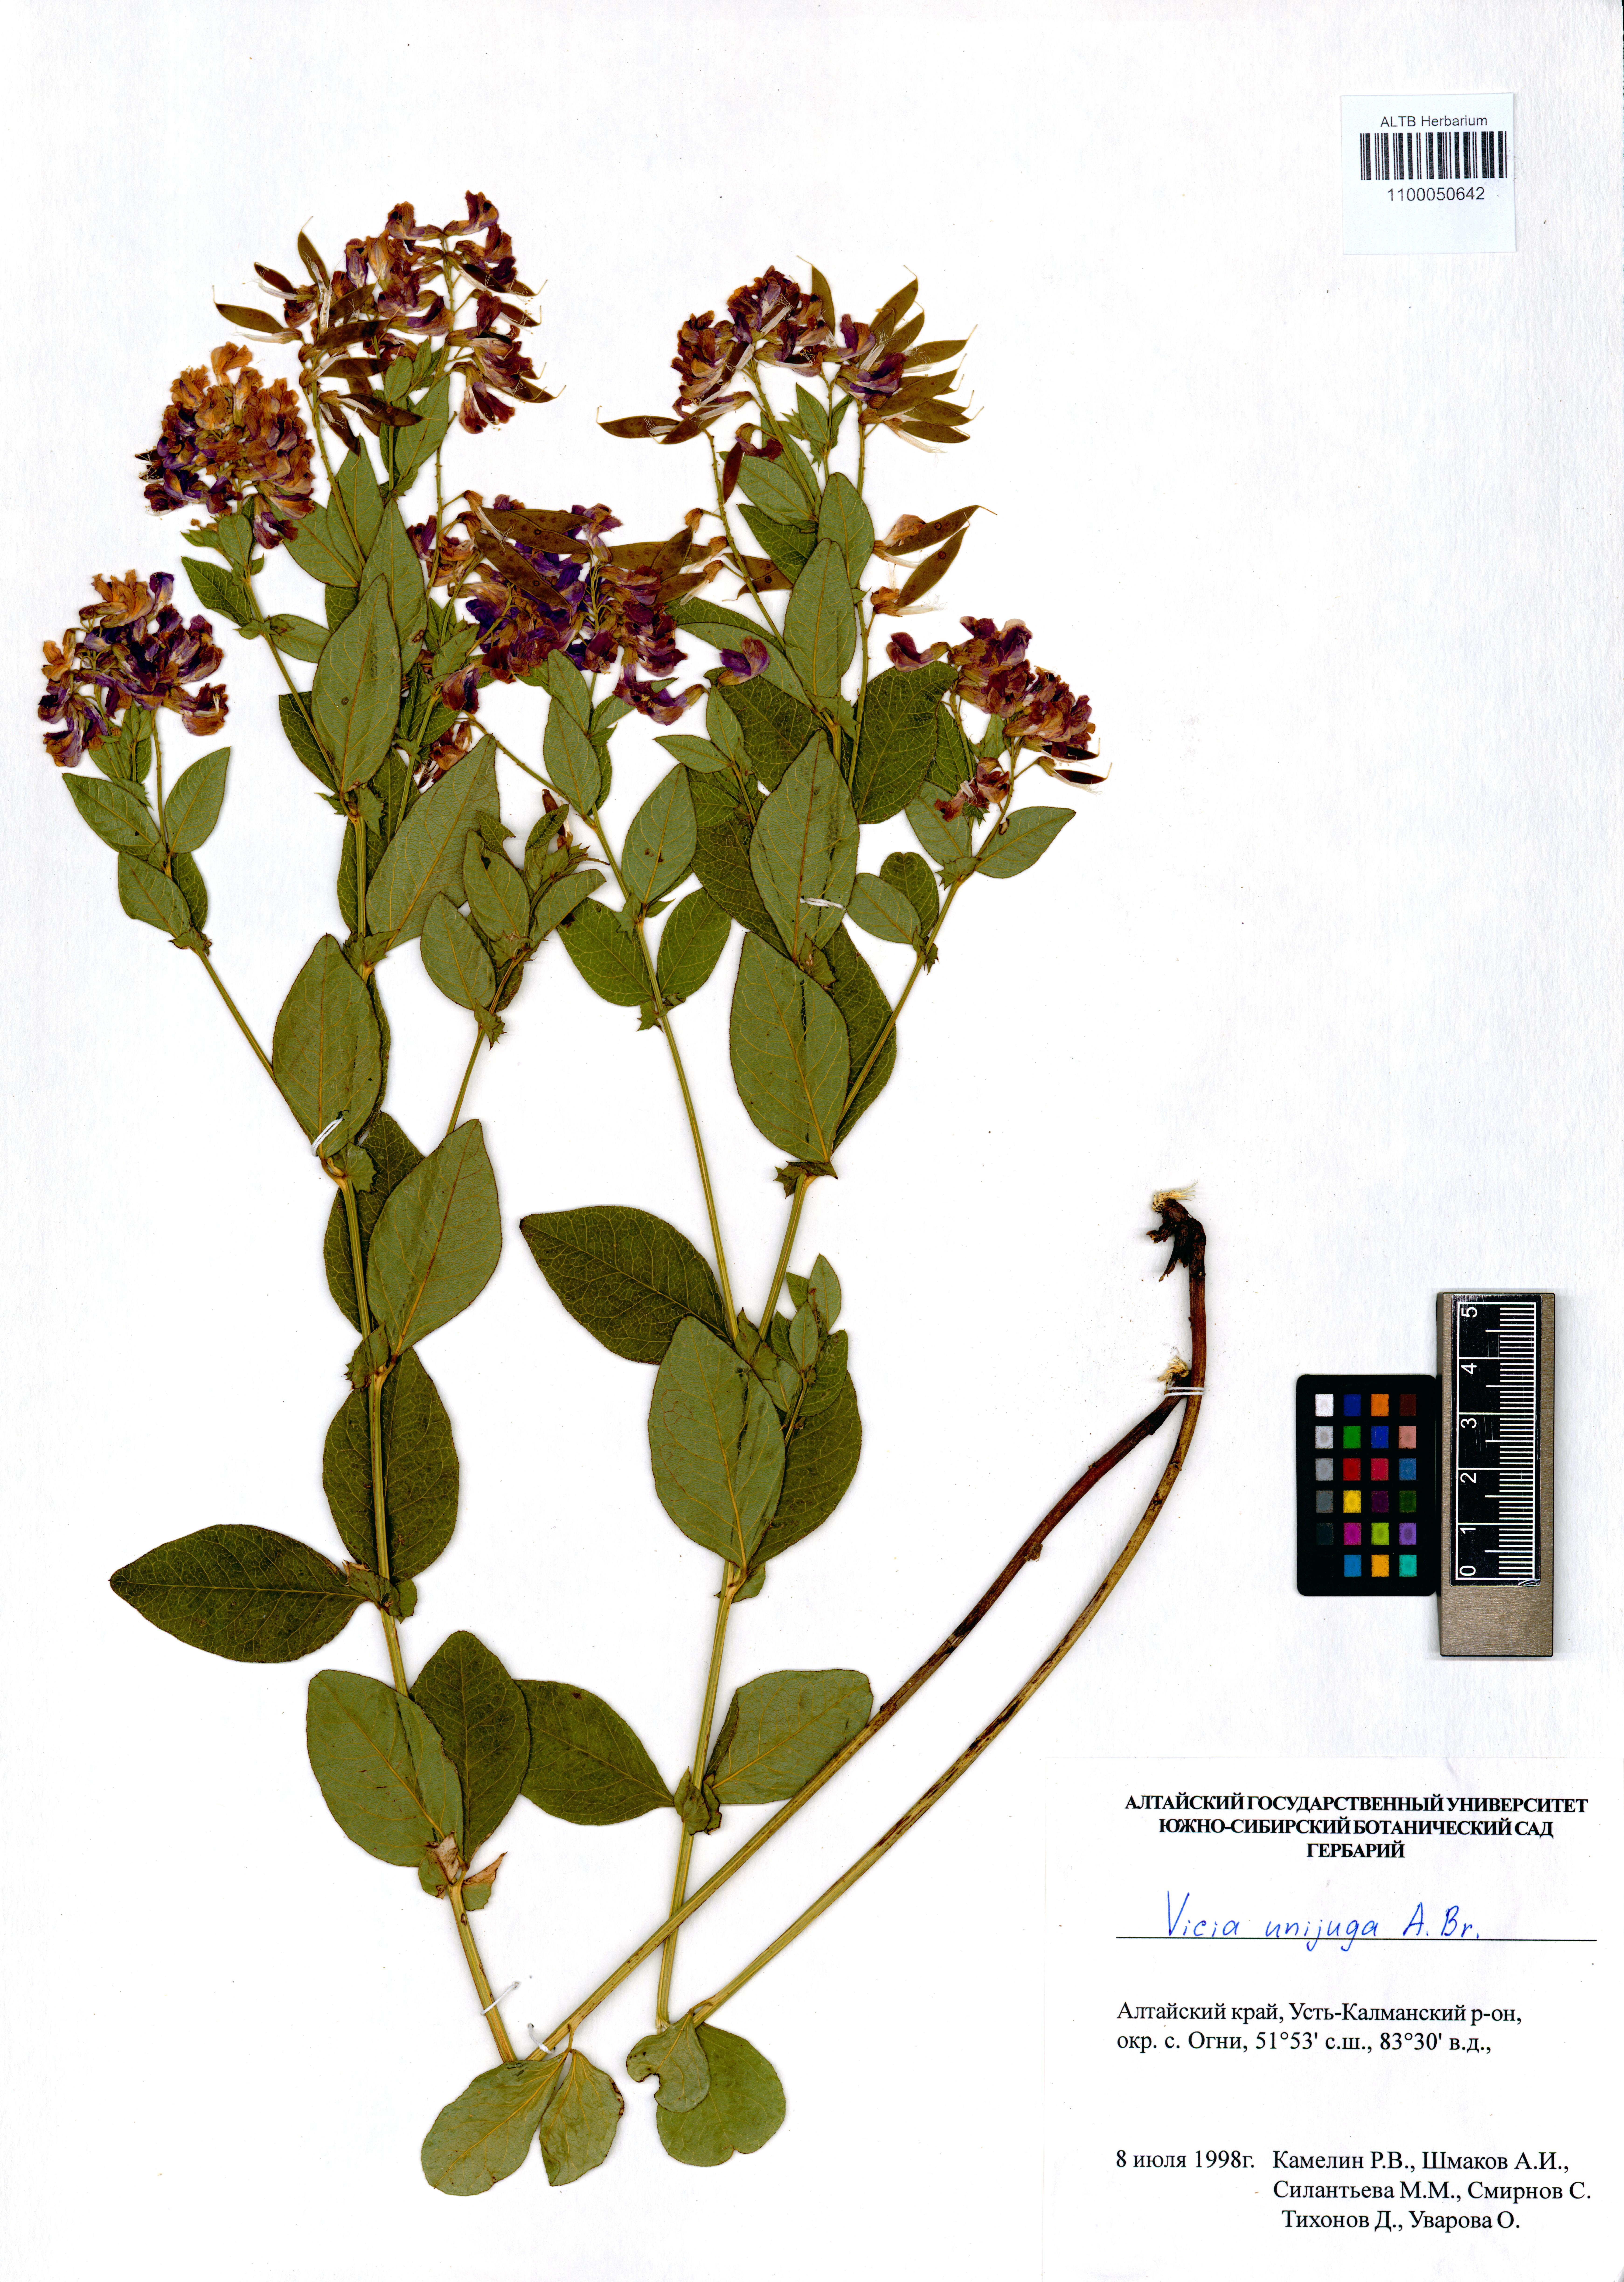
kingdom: Plantae
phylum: Tracheophyta
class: Magnoliopsida
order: Fabales
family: Fabaceae
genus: Vicia
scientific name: Vicia unijuga
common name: Two-leaf vetch
